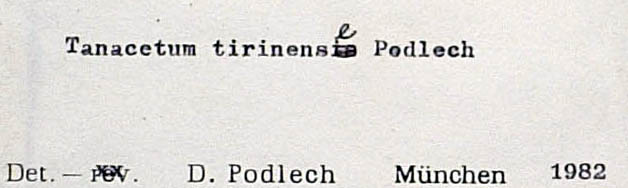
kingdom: Plantae
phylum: Tracheophyta
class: Magnoliopsida
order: Asterales
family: Asteraceae
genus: Tanacetum
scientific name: Tanacetum tirinense
